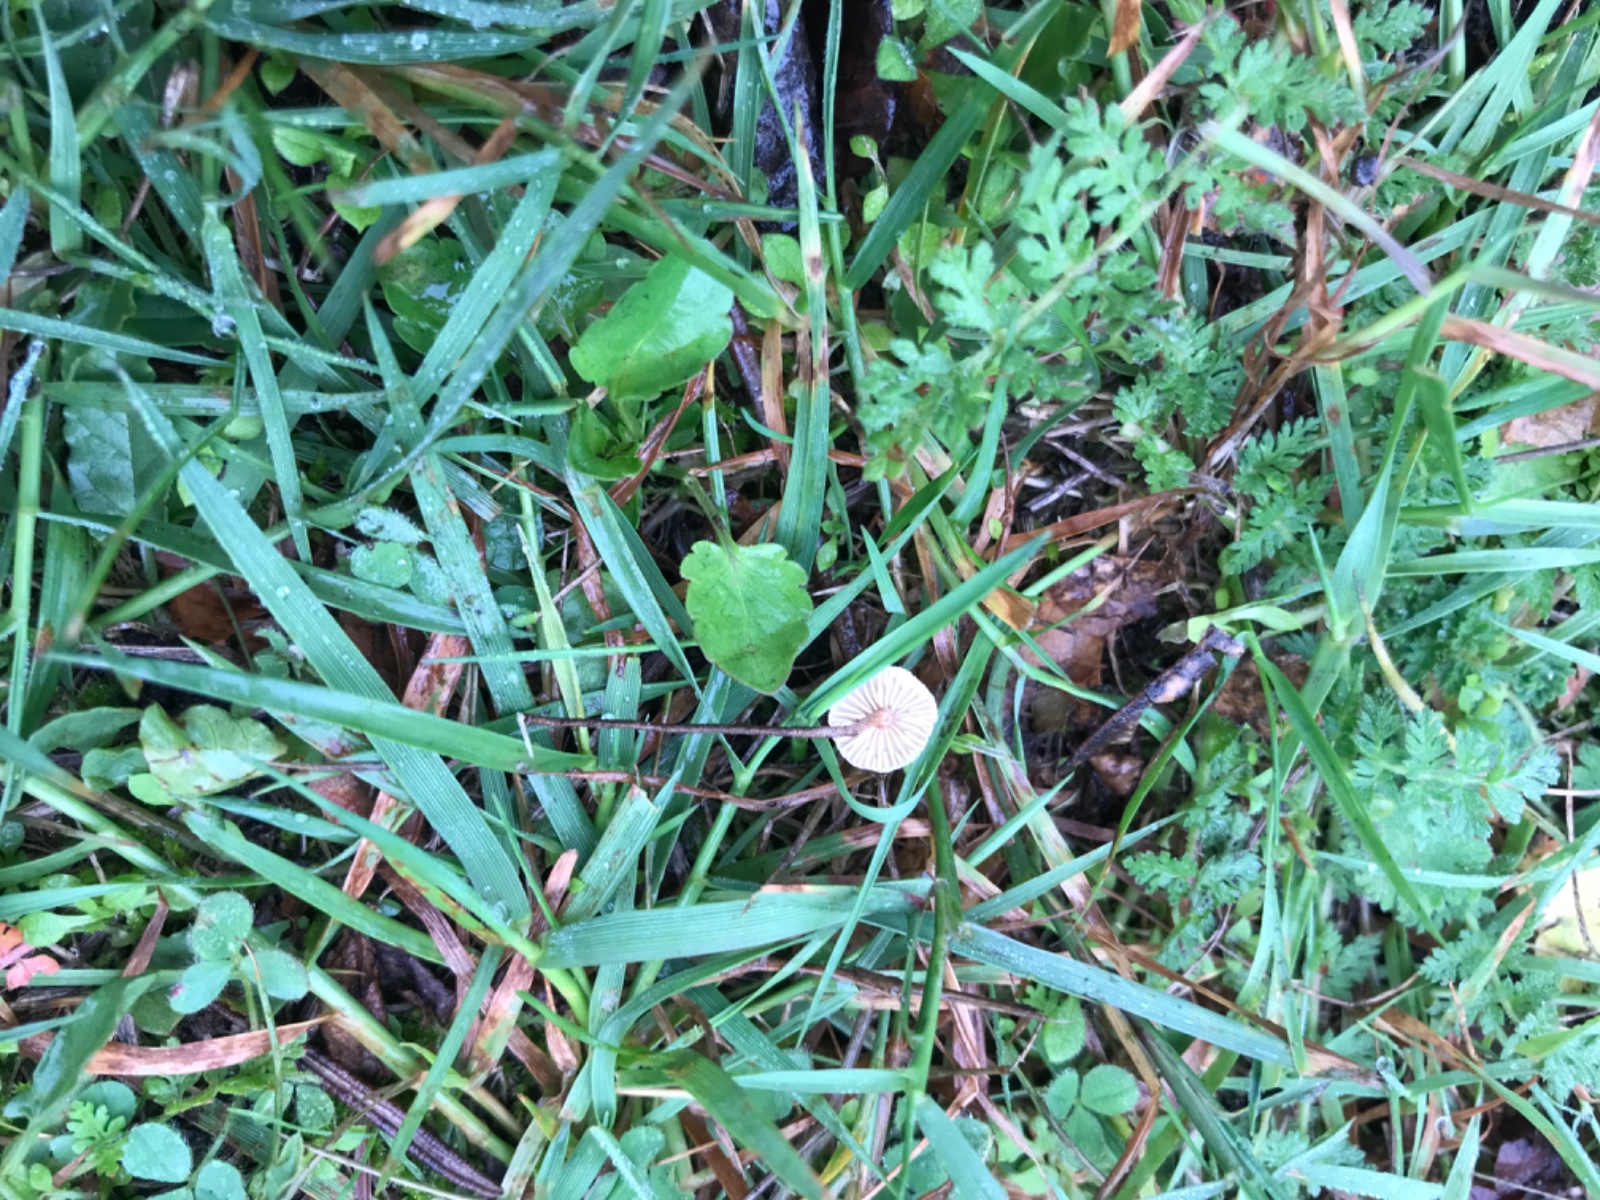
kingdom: Fungi
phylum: Basidiomycota
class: Agaricomycetes
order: Agaricales
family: Marasmiaceae
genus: Crinipellis
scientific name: Crinipellis scabella
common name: børstefod
